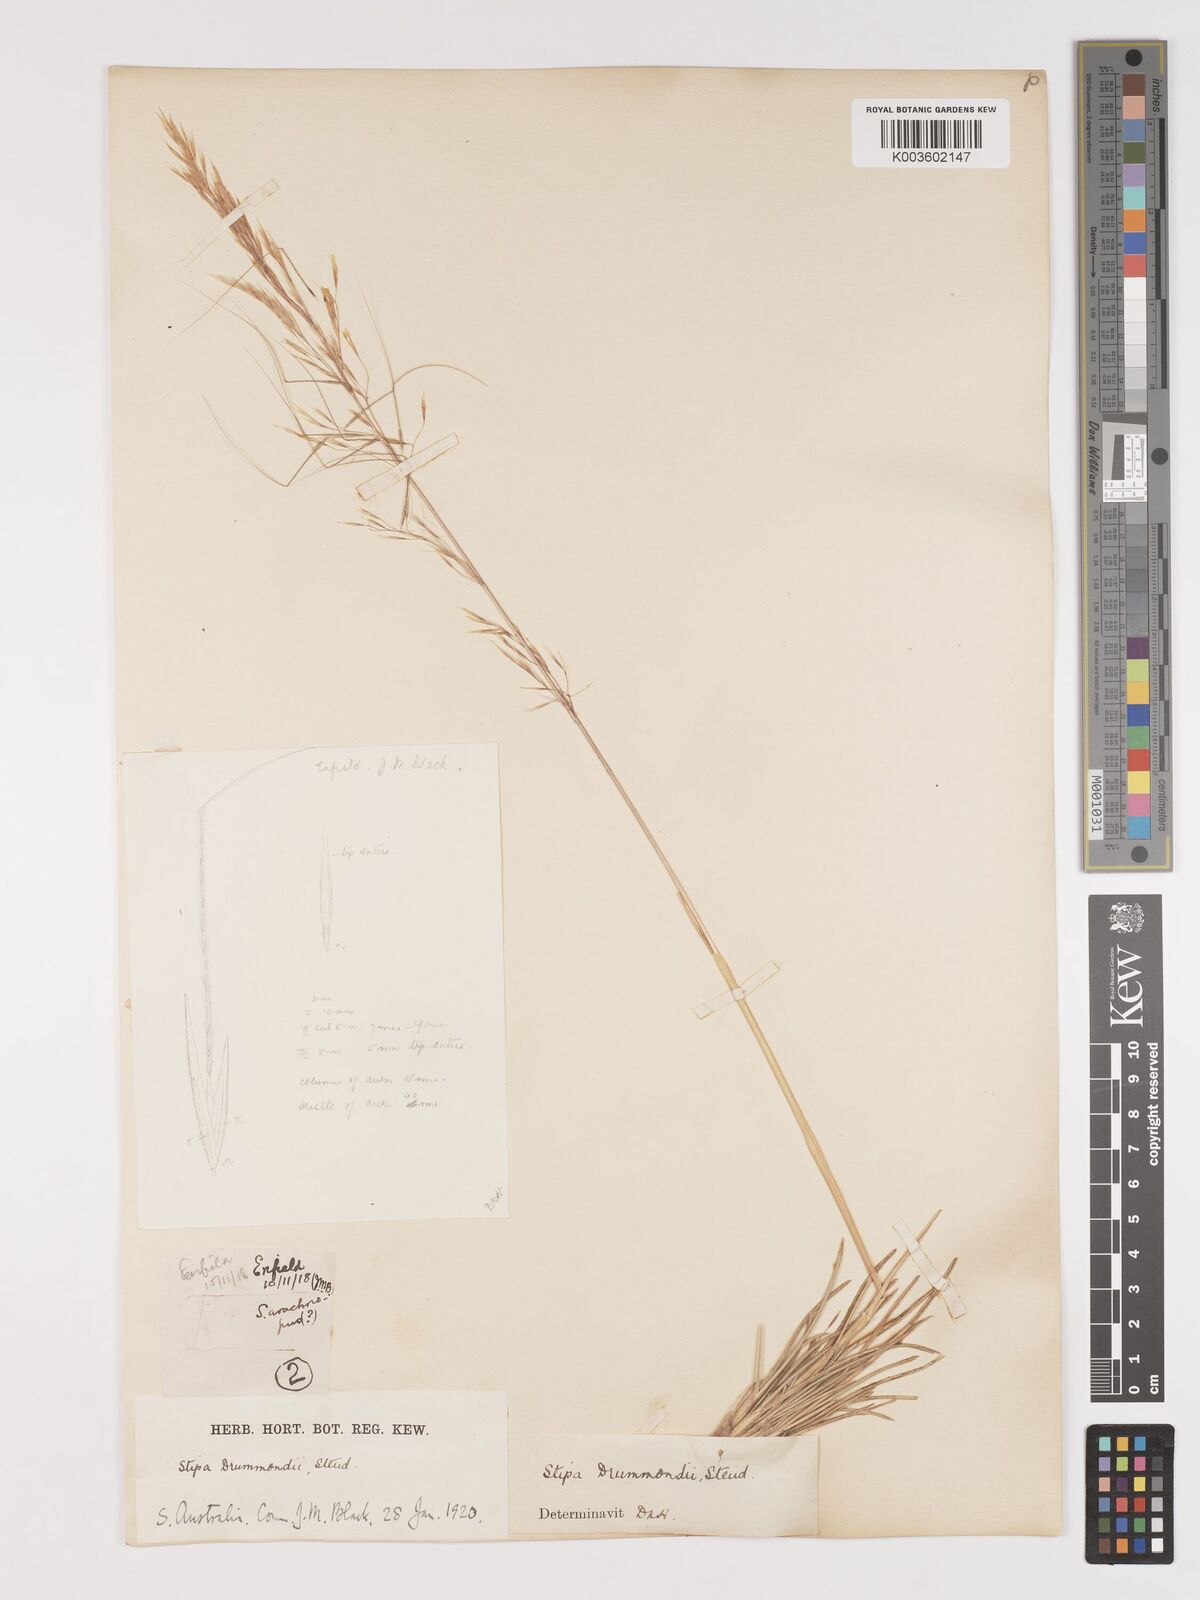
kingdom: Plantae
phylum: Tracheophyta
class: Liliopsida
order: Poales
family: Poaceae
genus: Austrostipa
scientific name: Austrostipa drummondii
